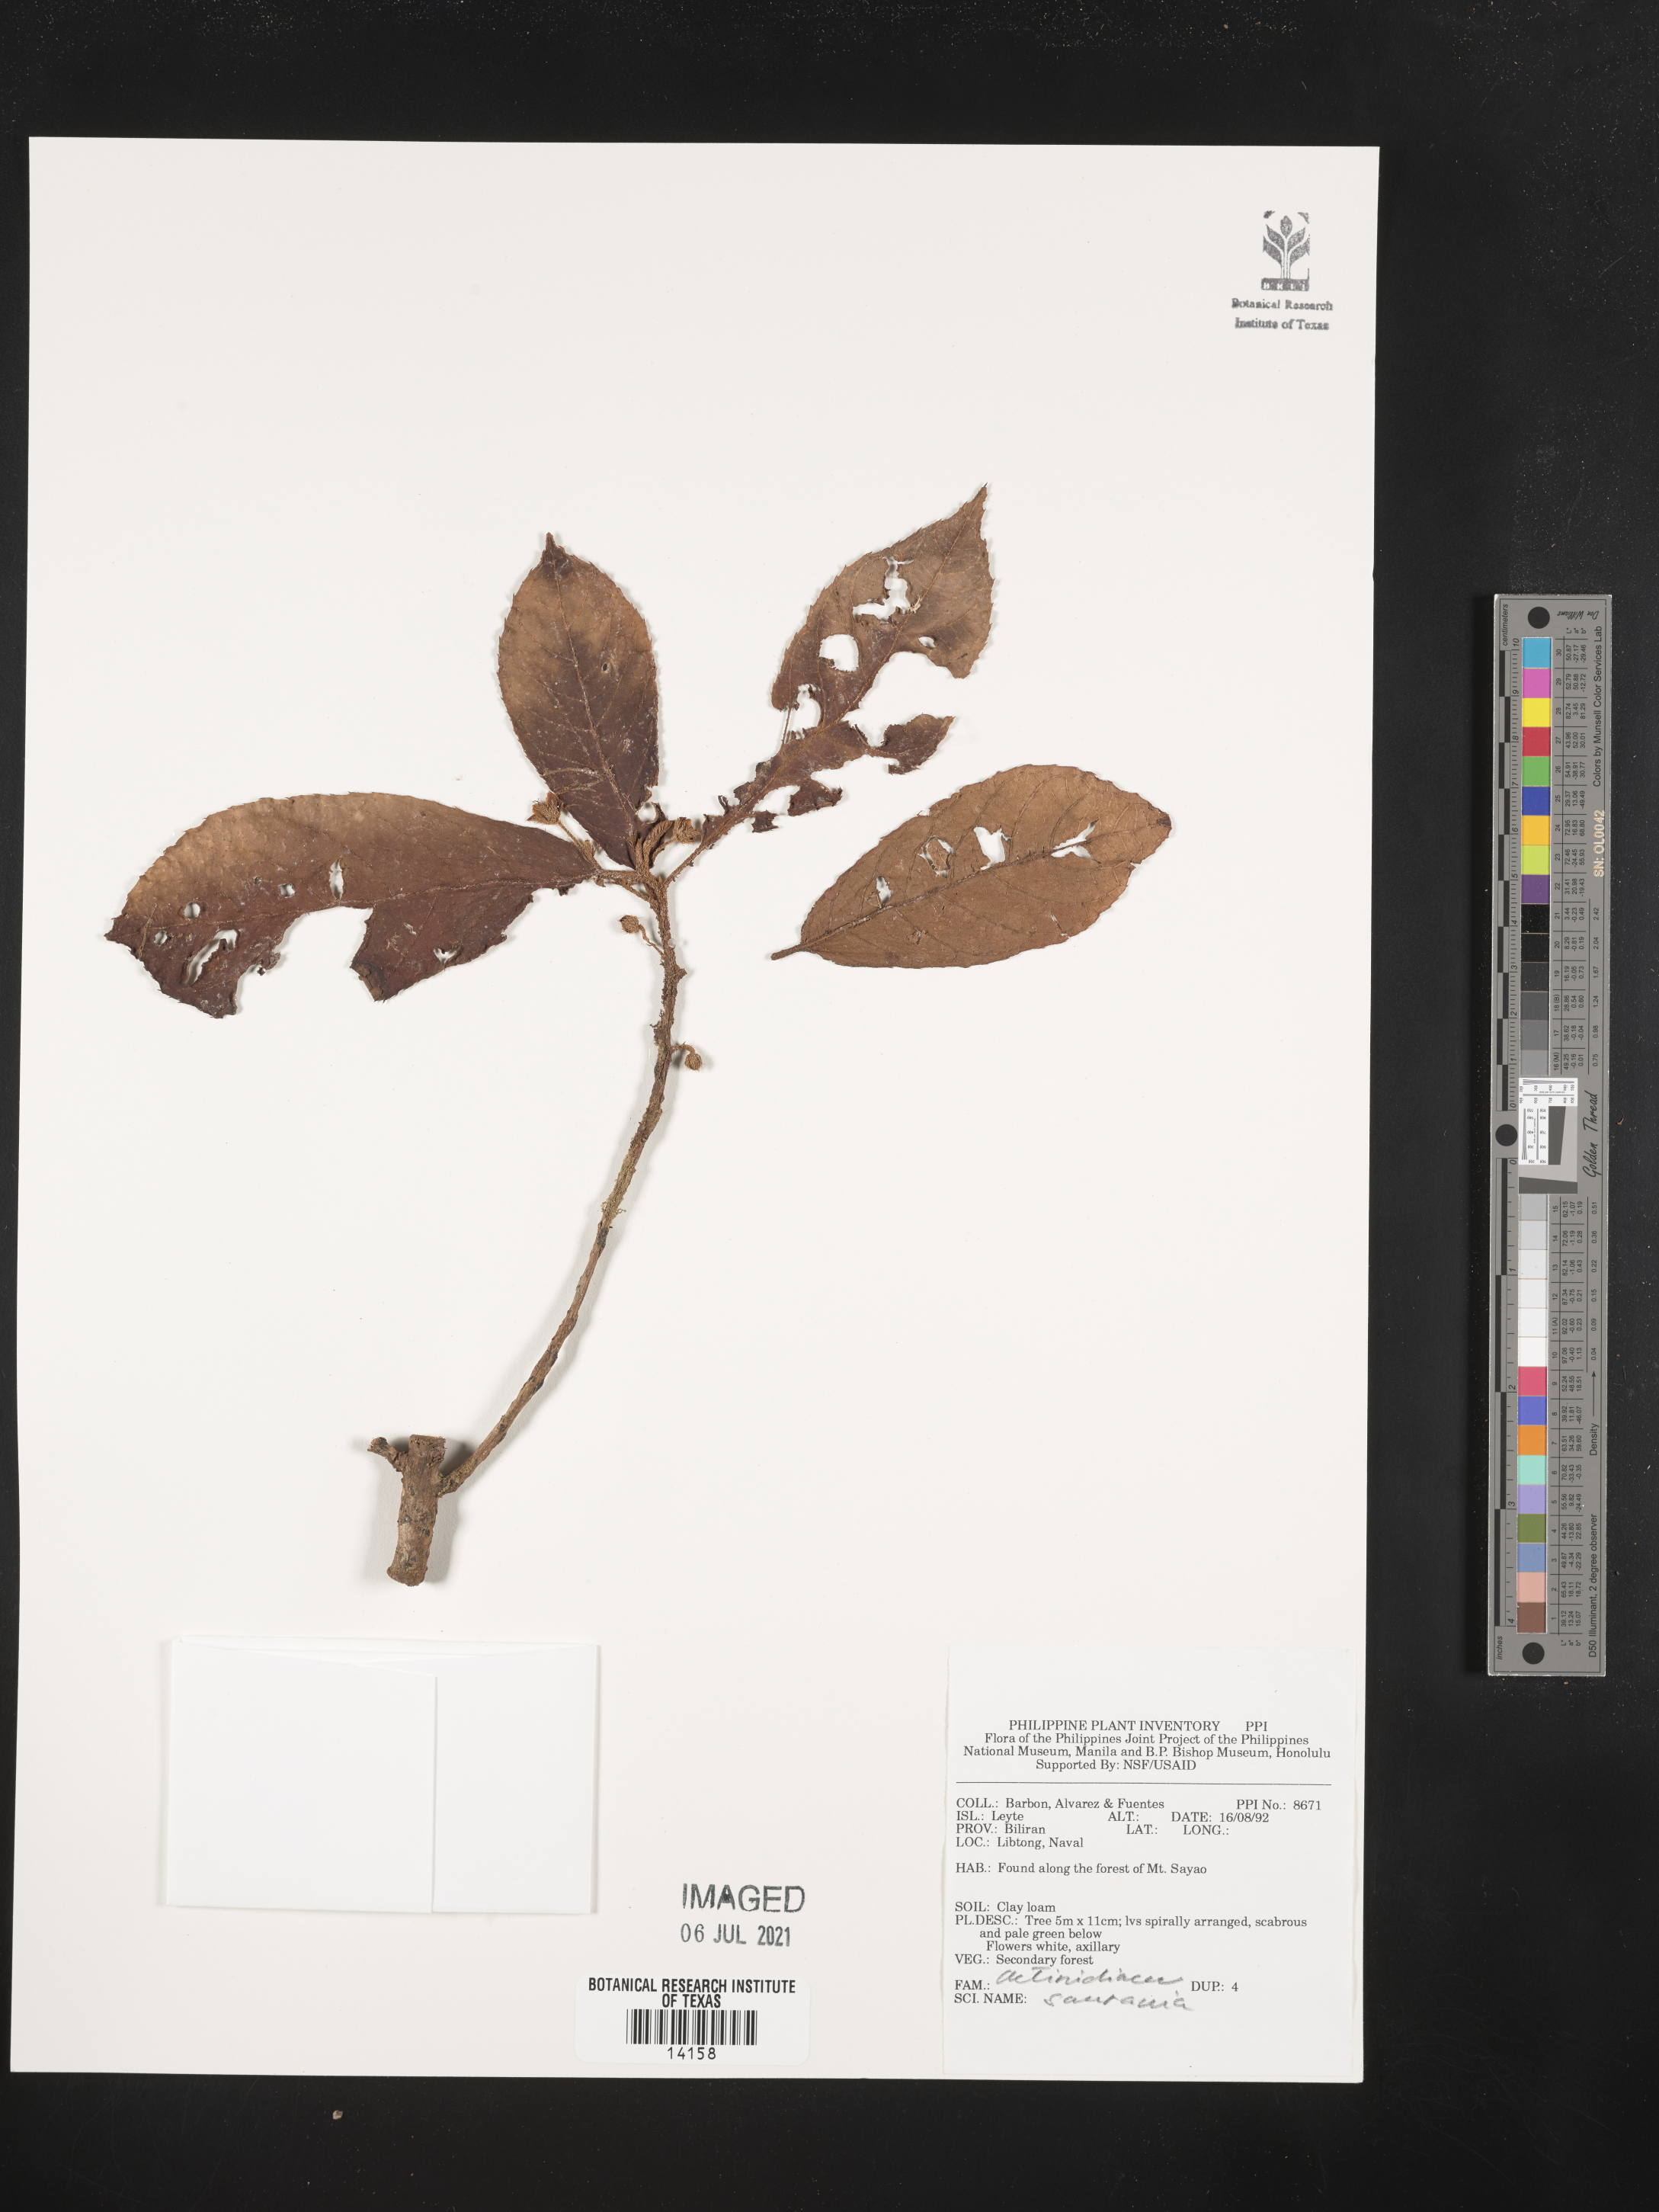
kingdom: Plantae
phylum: Tracheophyta
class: Magnoliopsida
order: Ericales
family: Actinidiaceae
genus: Saurauia
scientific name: Saurauia
